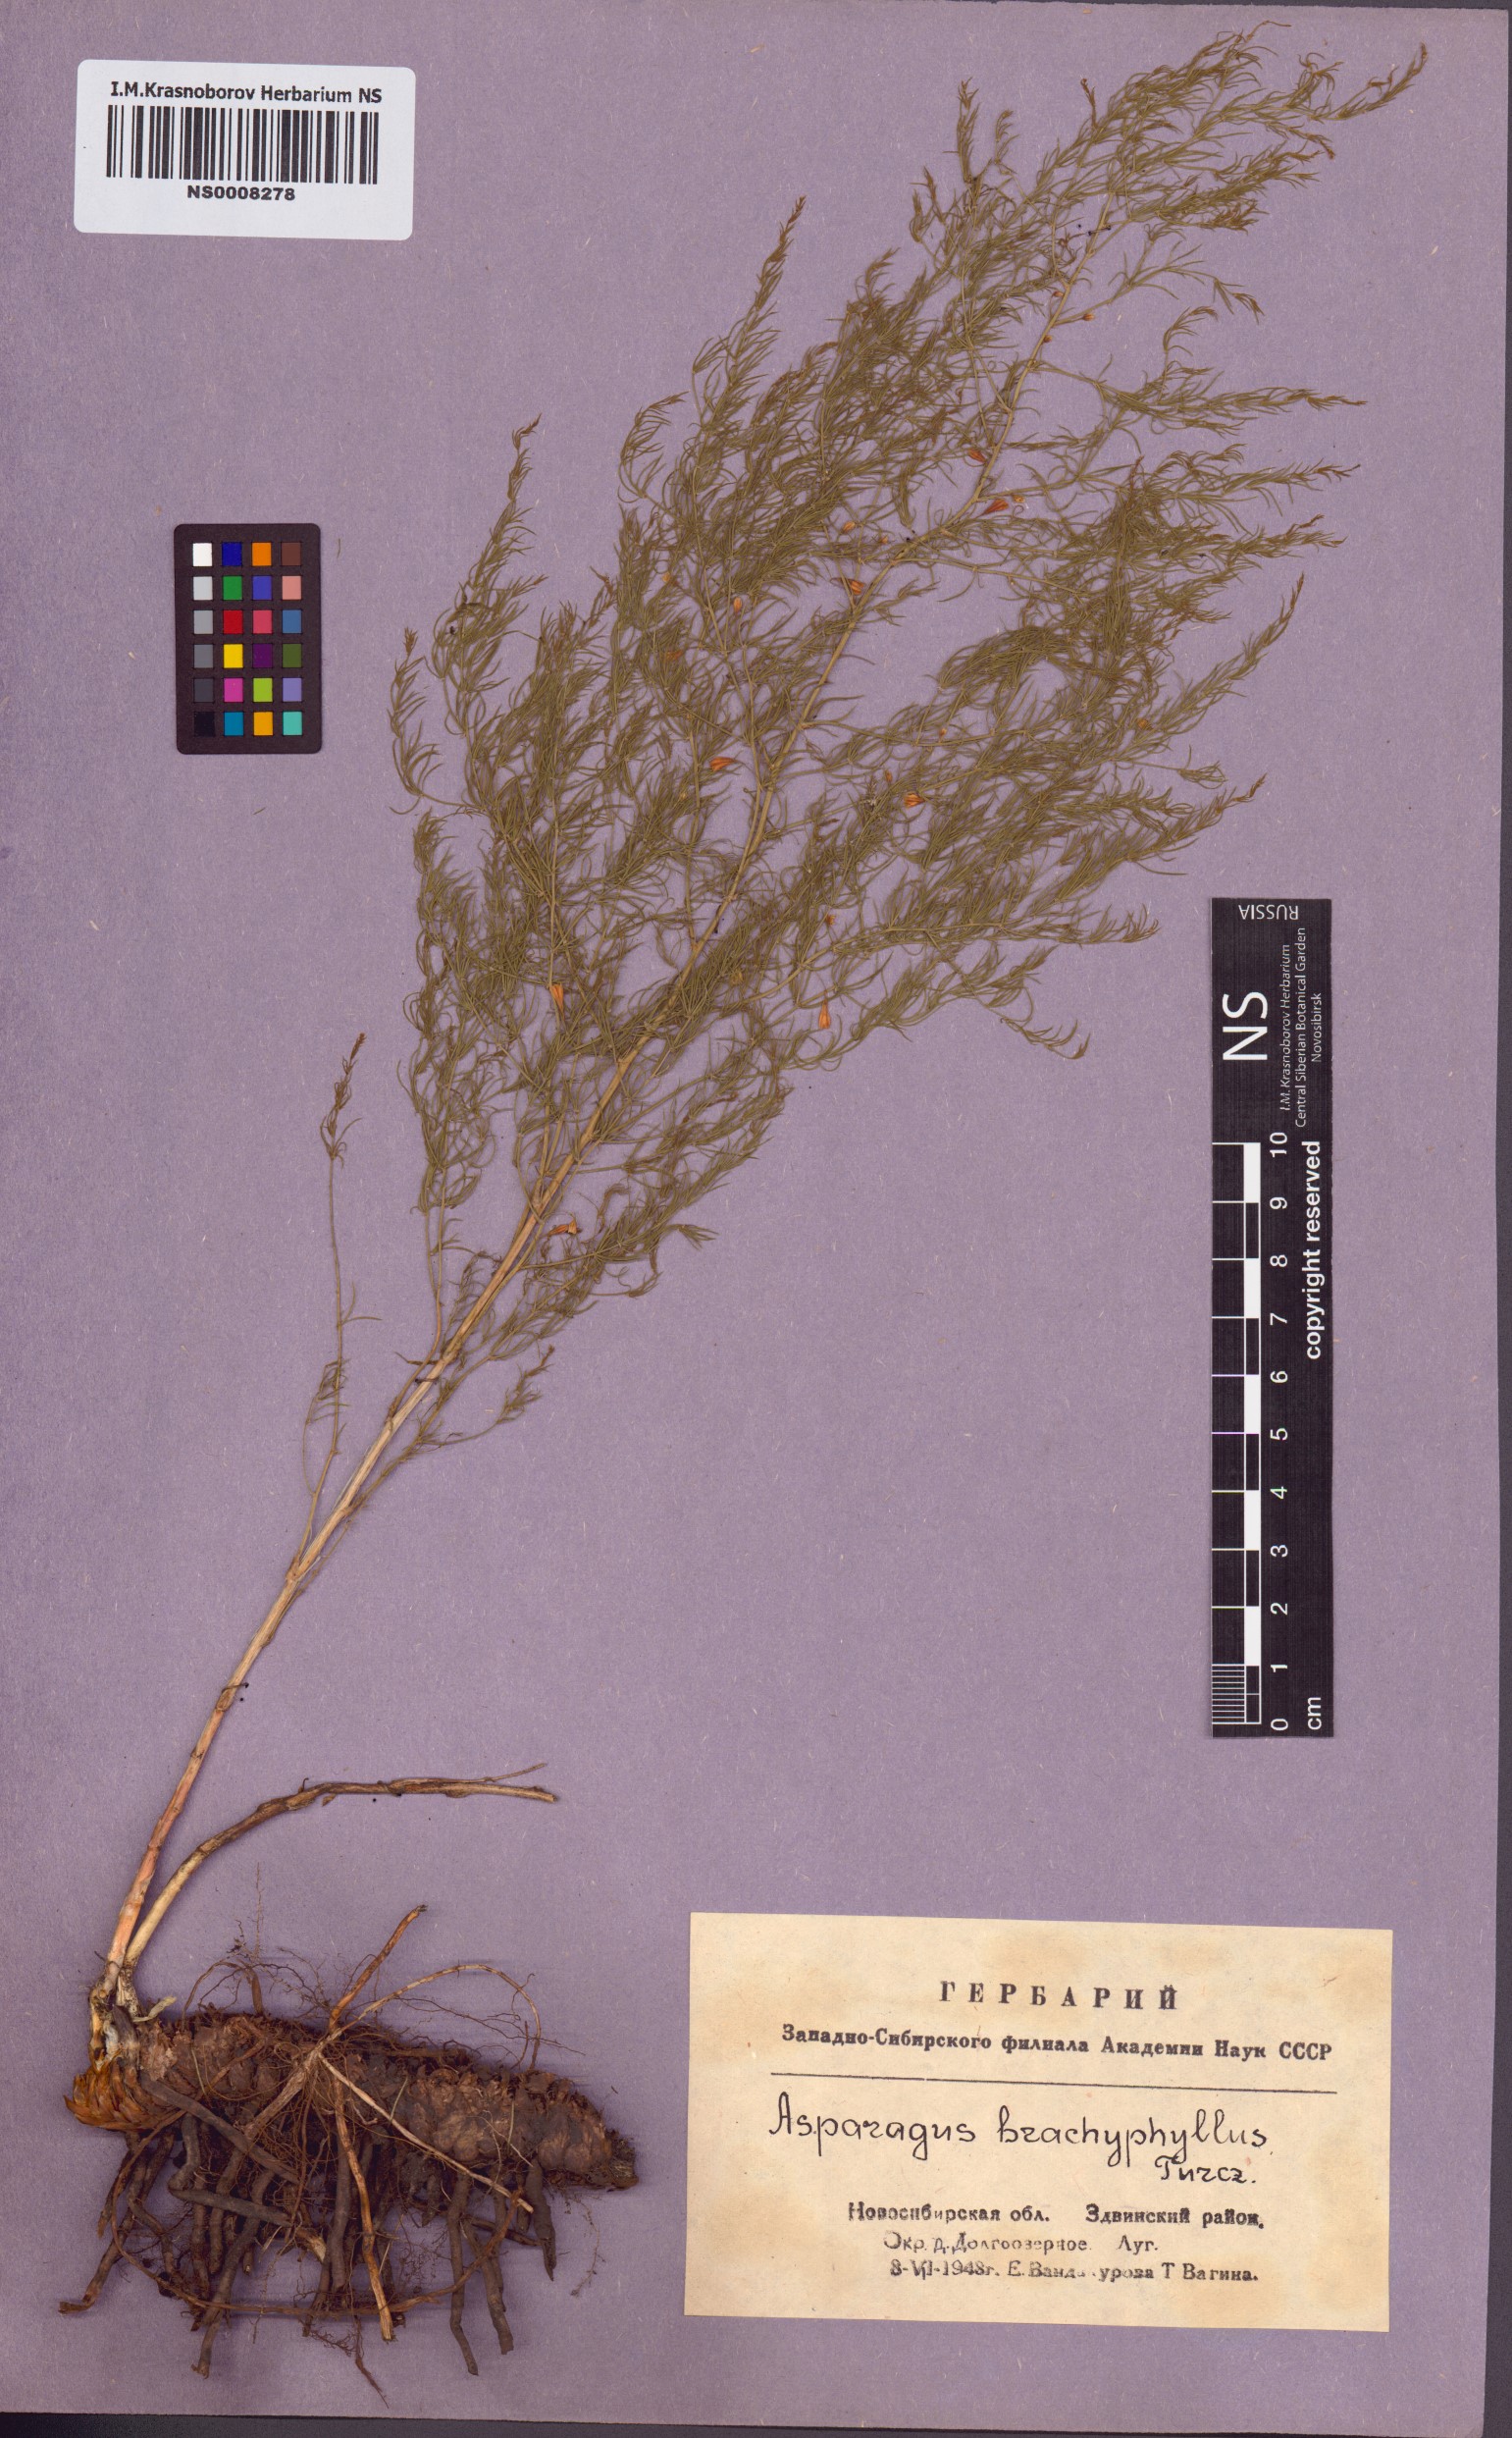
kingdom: Plantae
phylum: Tracheophyta
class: Liliopsida
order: Asparagales
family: Asparagaceae
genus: Asparagus
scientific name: Asparagus brachyphyllus
